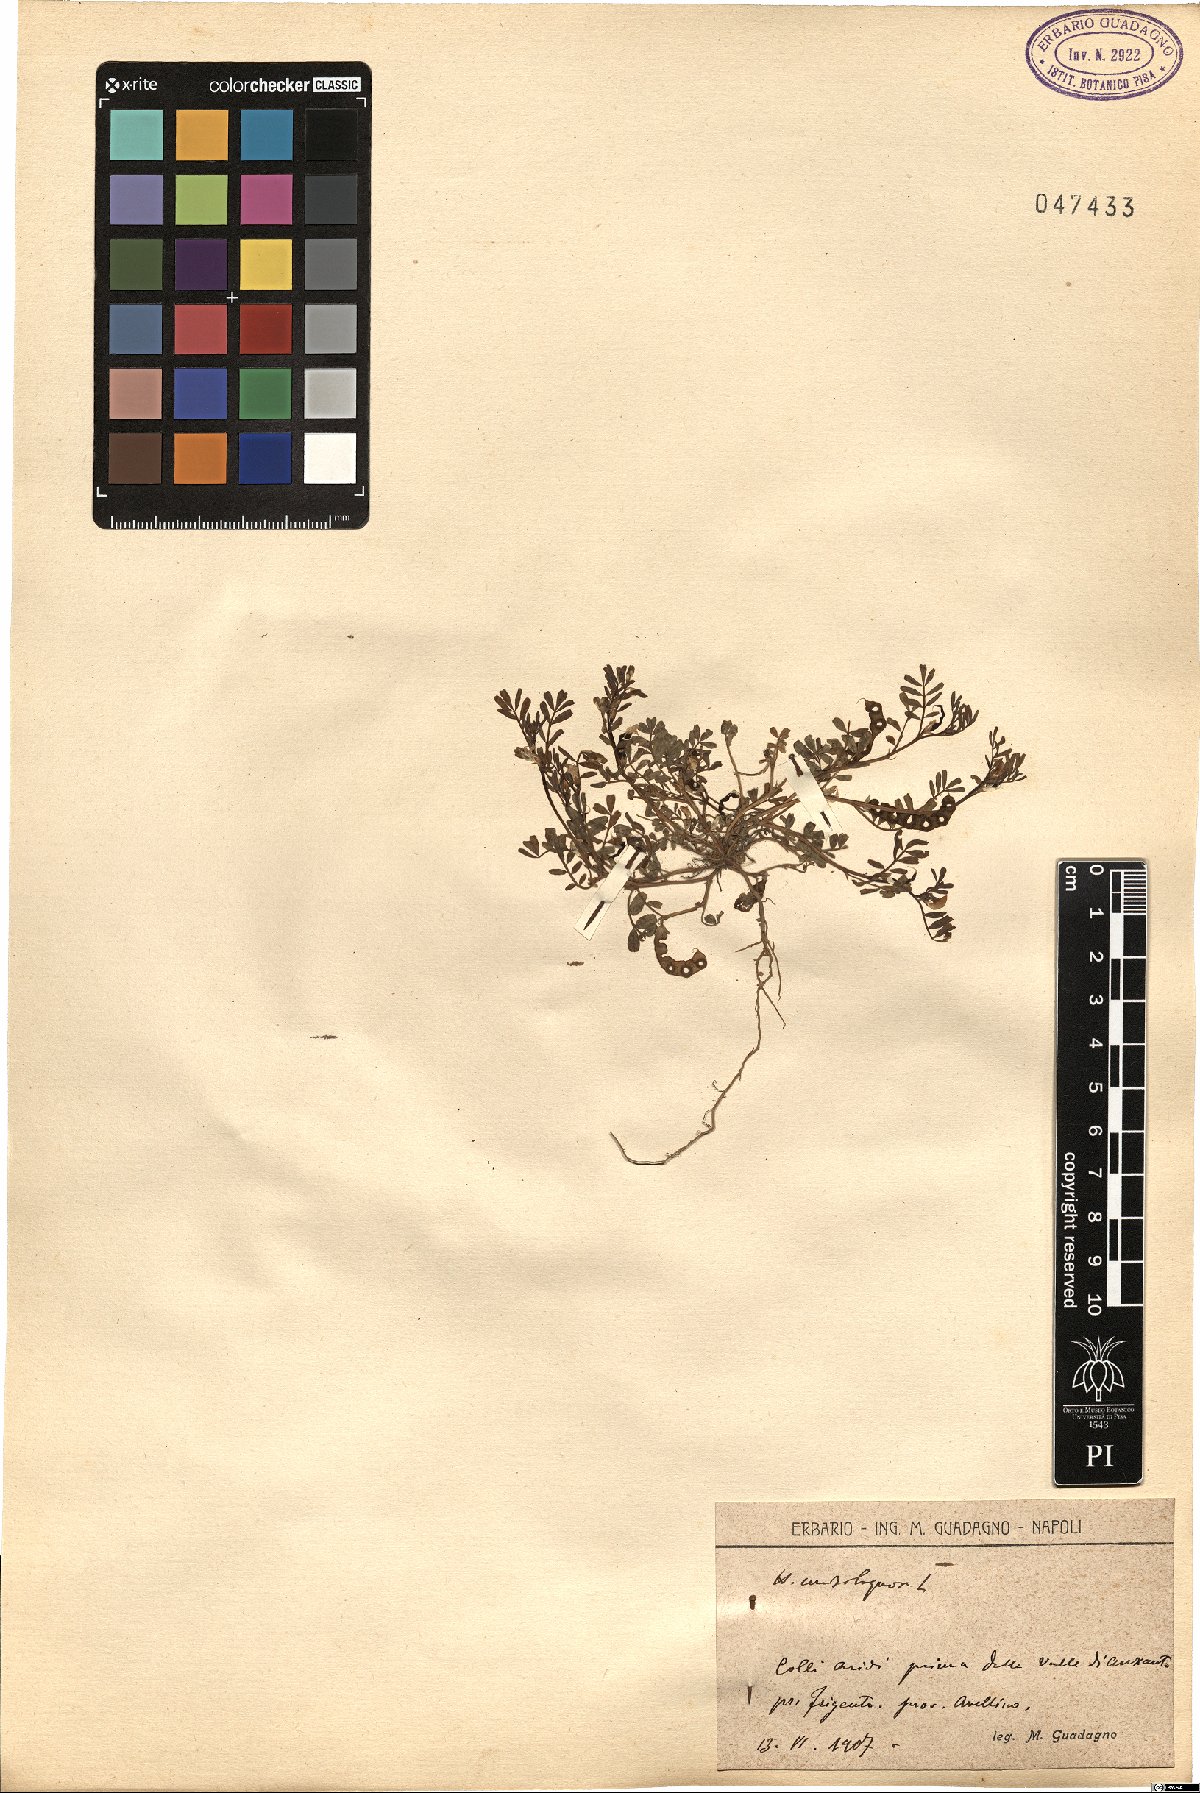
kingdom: Plantae
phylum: Tracheophyta
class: Magnoliopsida
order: Fabales
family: Fabaceae
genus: Hippocrepis
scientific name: Hippocrepis unisiliquosa
